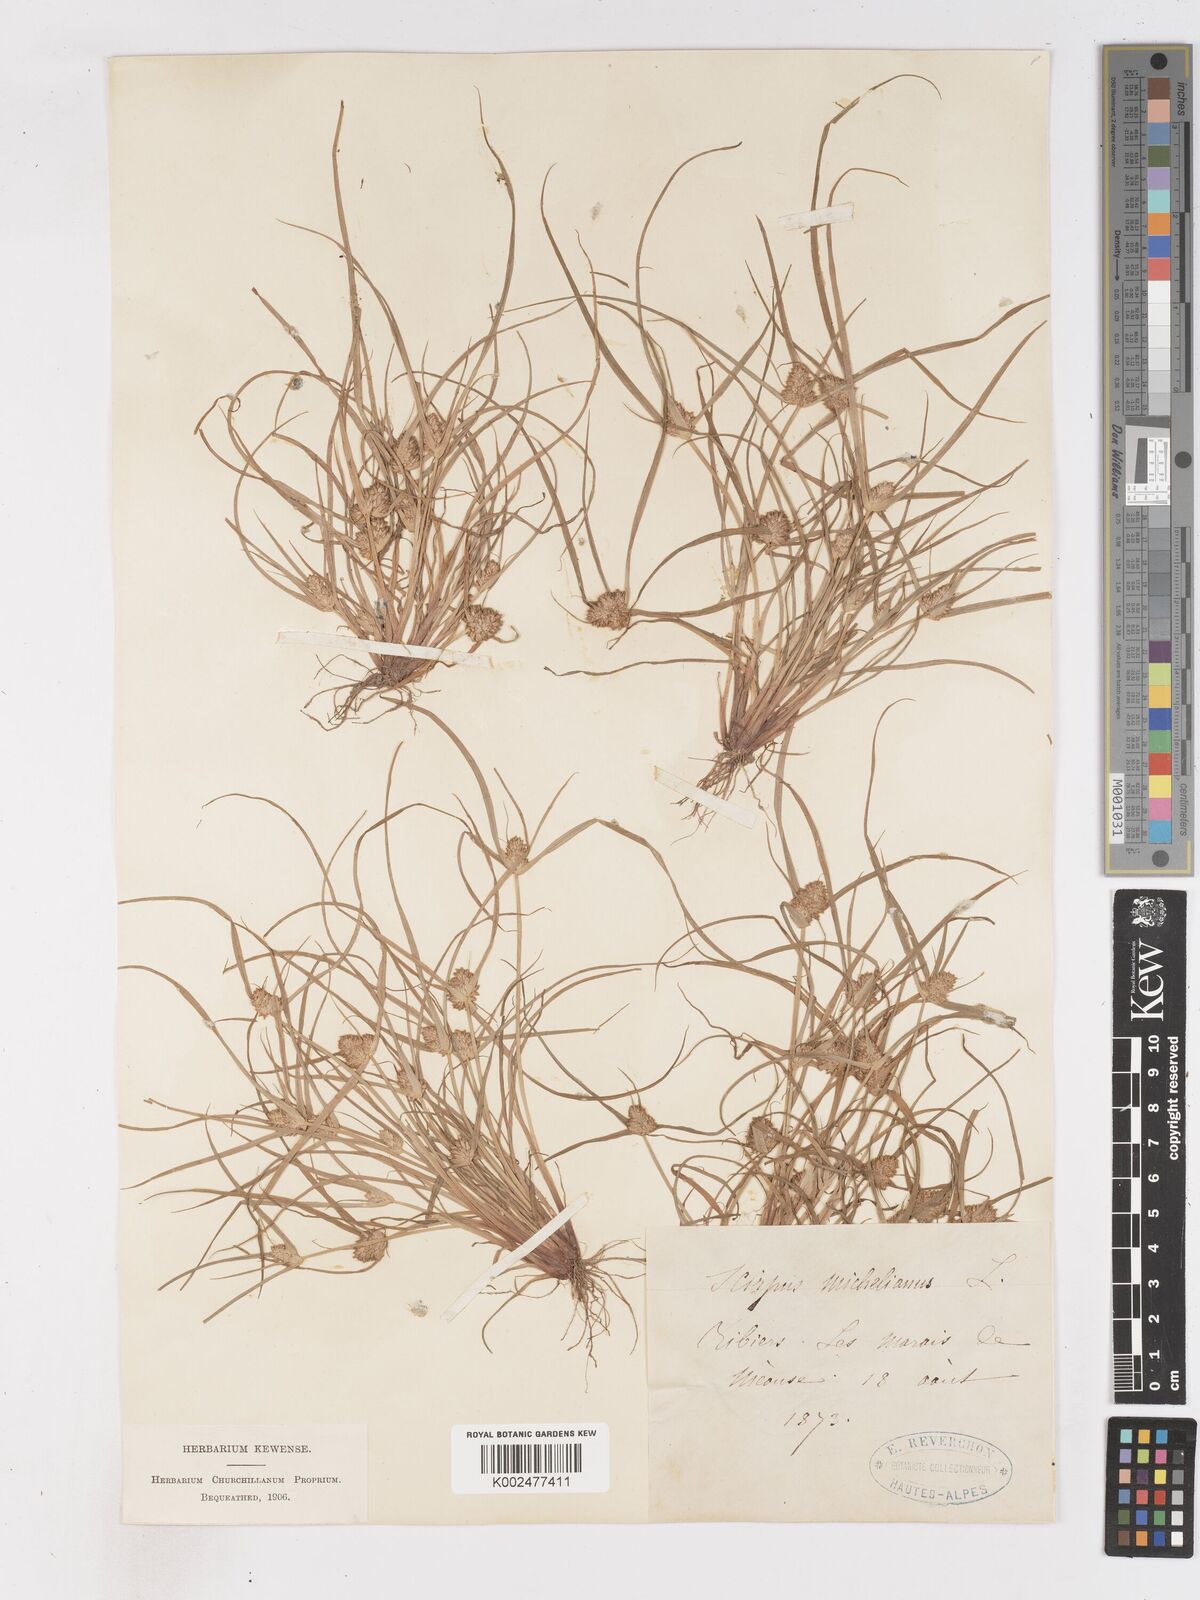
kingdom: Plantae
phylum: Tracheophyta
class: Liliopsida
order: Poales
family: Cyperaceae
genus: Cyperus
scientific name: Cyperus michelianus
